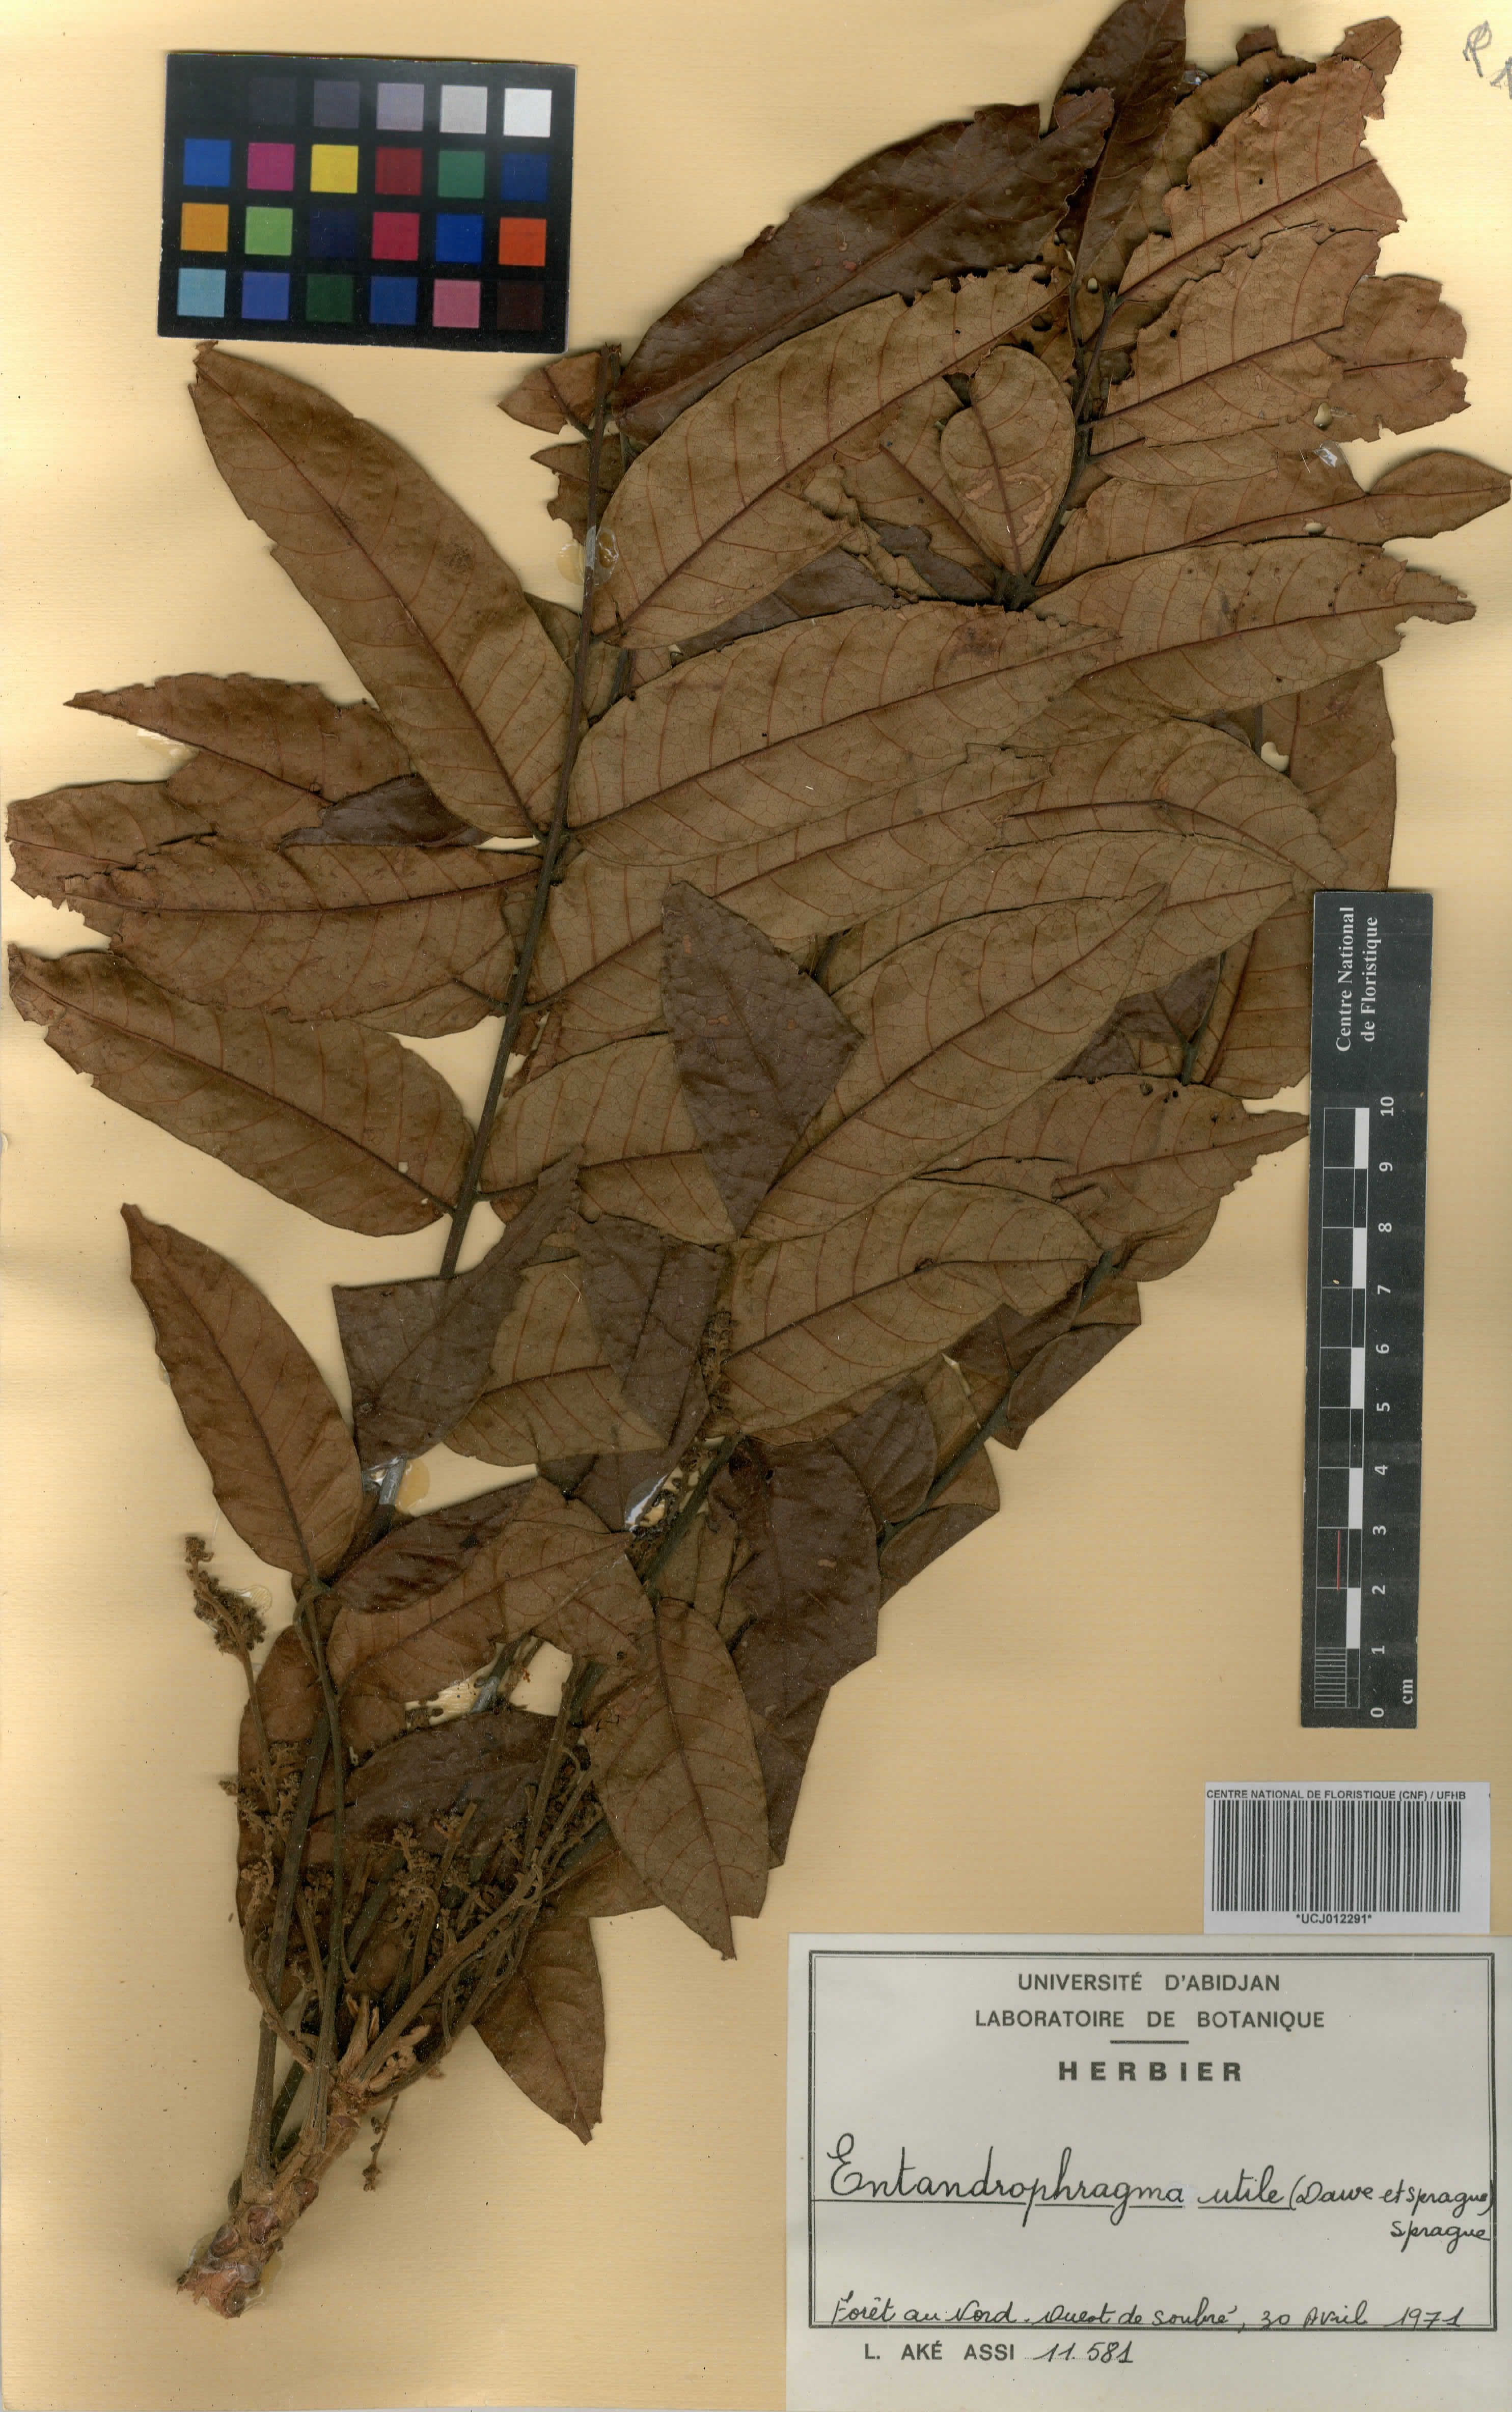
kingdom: Plantae
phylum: Tracheophyta
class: Magnoliopsida
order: Sapindales
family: Meliaceae
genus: Entandrophragma
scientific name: Entandrophragma utile
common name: Utile
